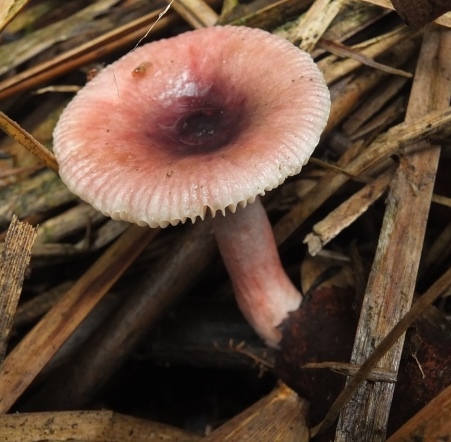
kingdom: Fungi
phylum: Basidiomycota
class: Agaricomycetes
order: Russulales
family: Russulaceae
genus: Russula
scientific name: Russula nitida
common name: året skørhat
